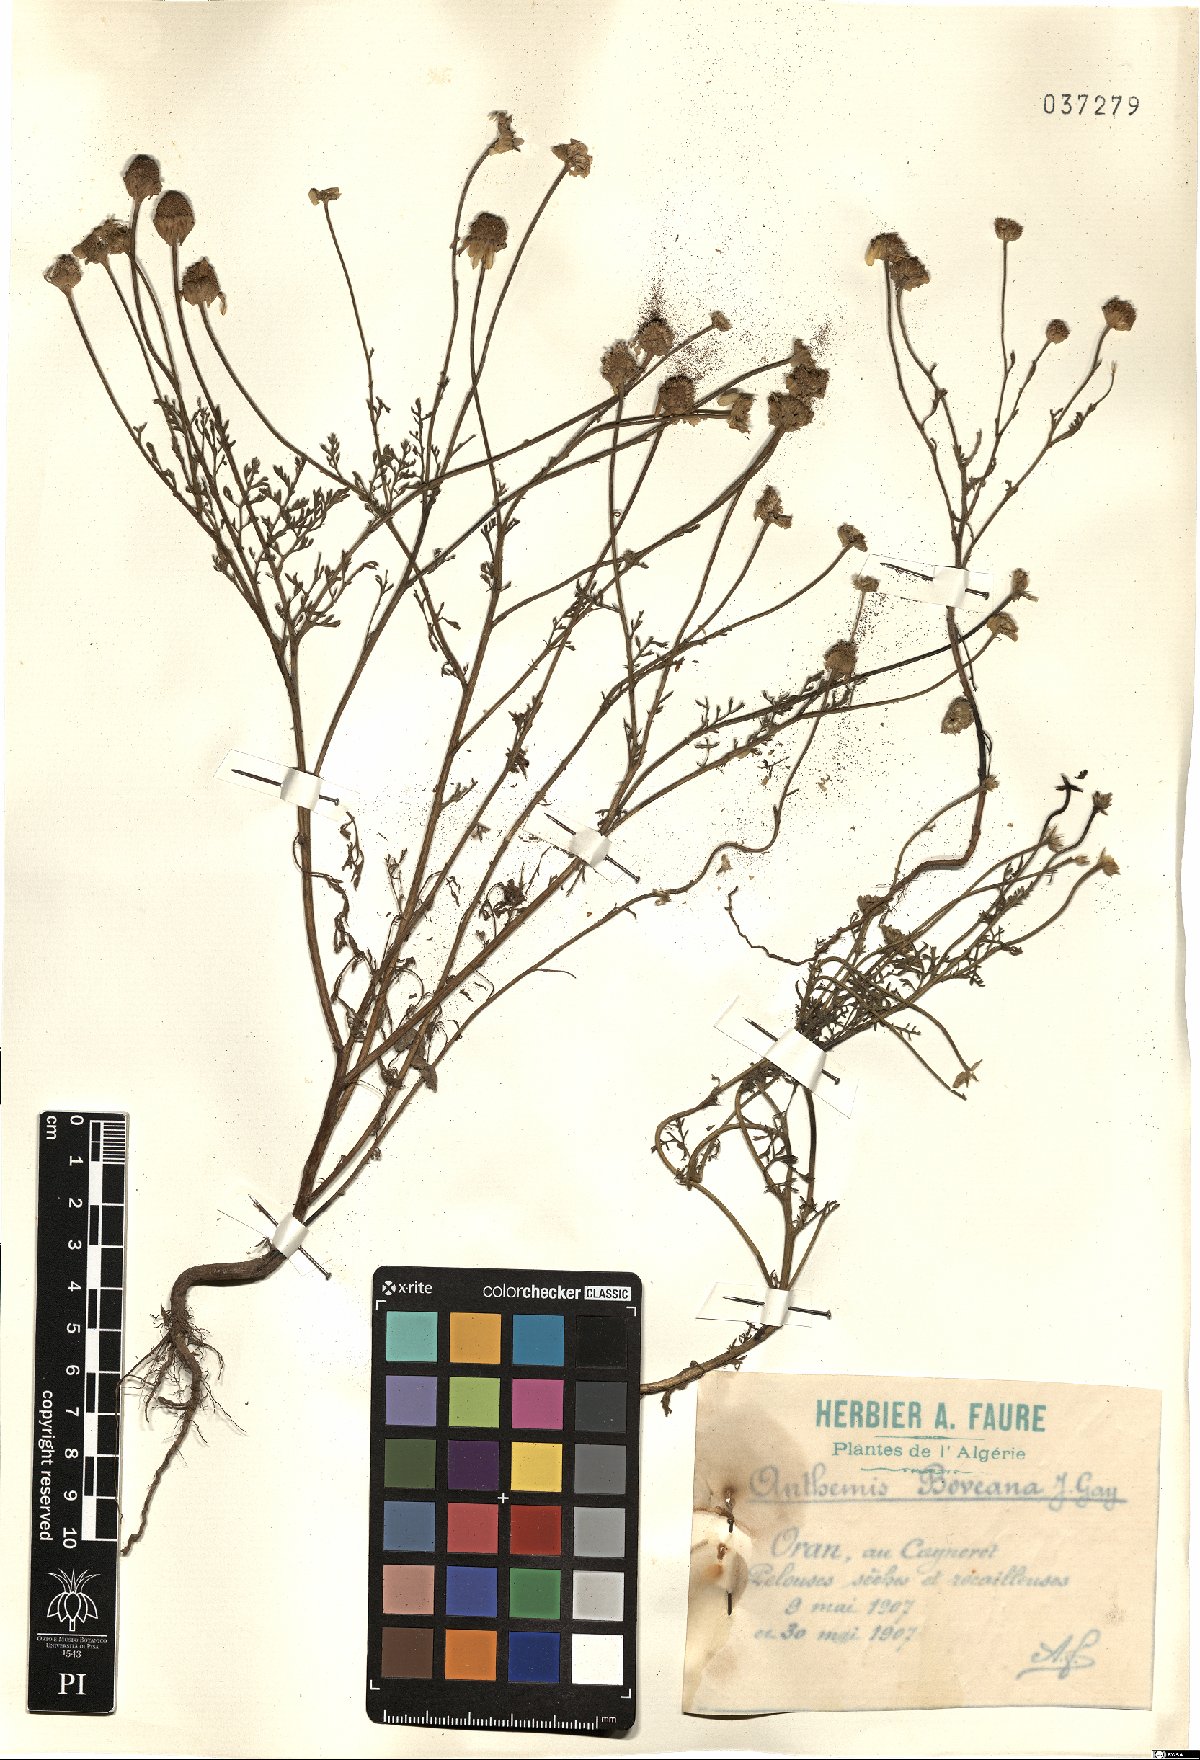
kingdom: Plantae
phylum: Tracheophyta
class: Magnoliopsida
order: Asterales
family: Asteraceae
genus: Anthemis
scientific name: Anthemis boveana
